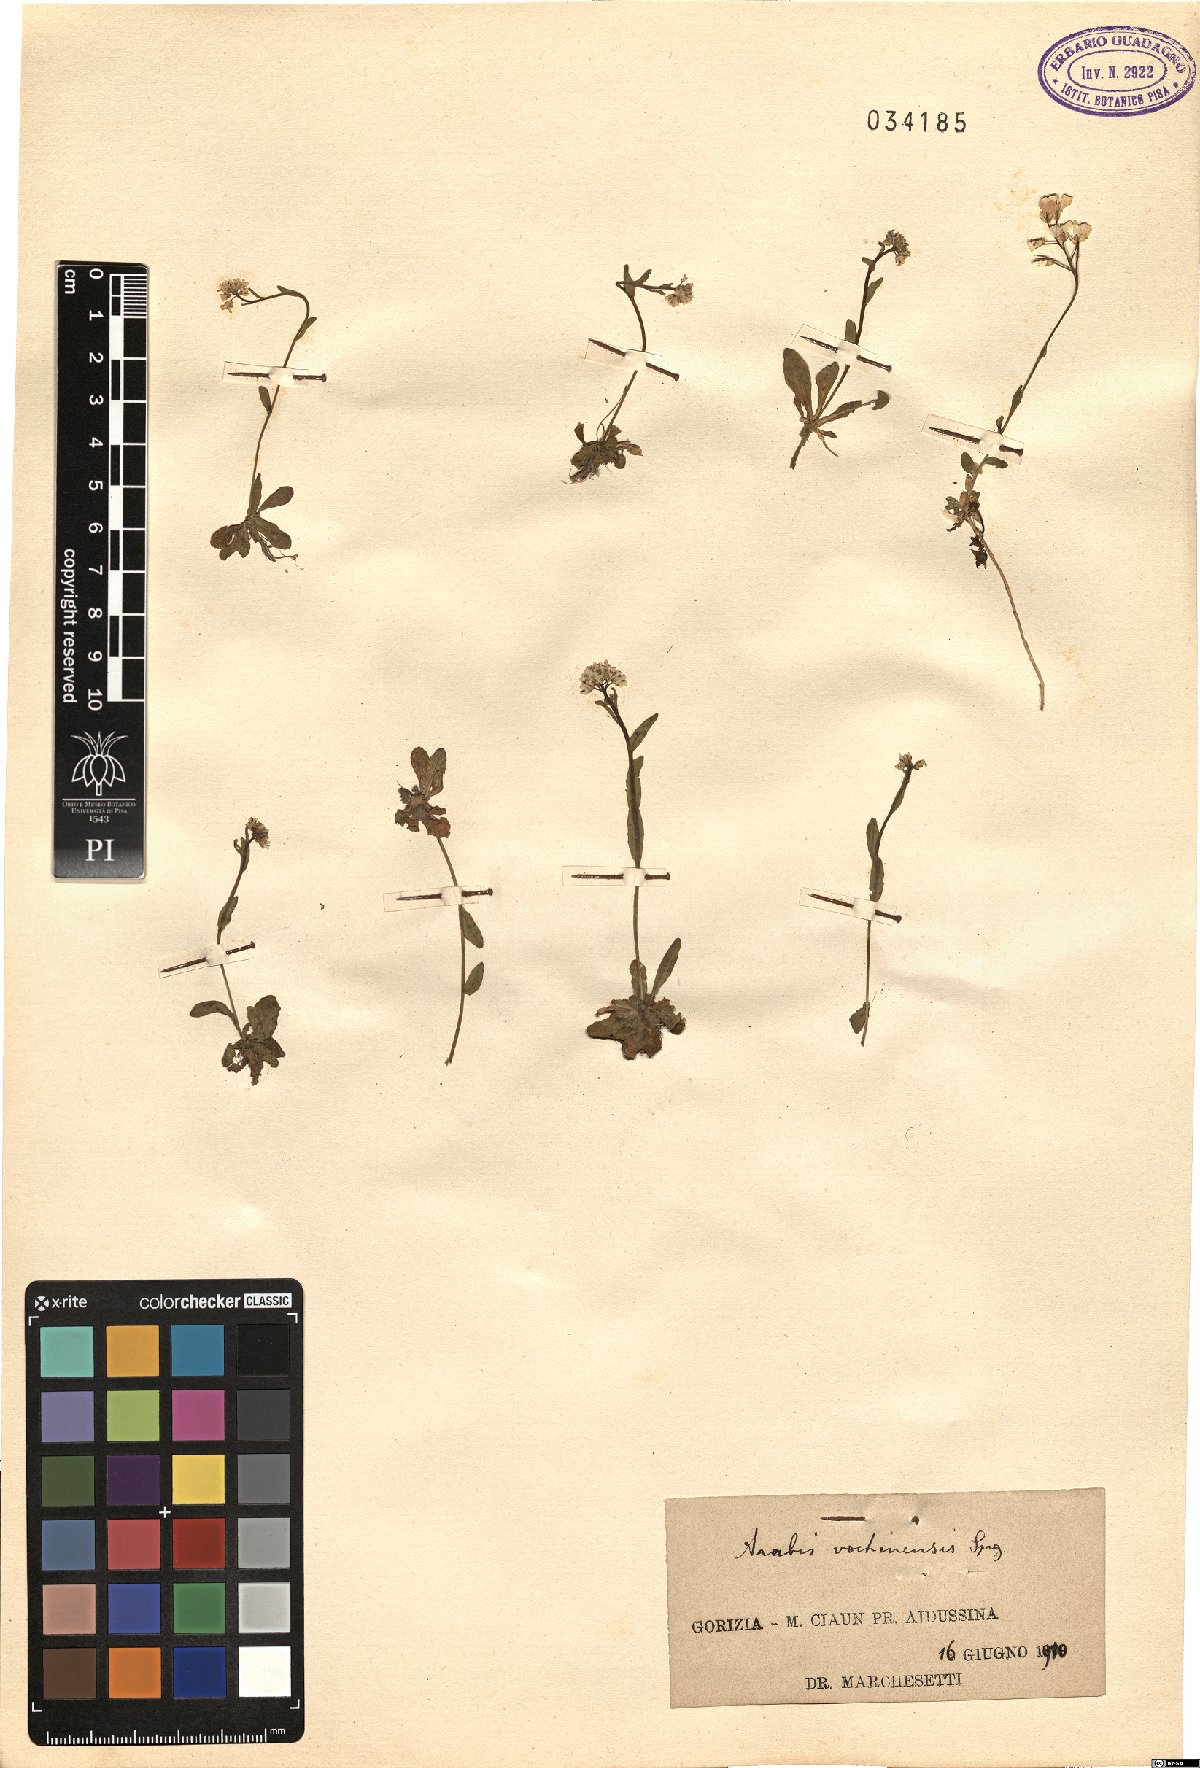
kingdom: Plantae
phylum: Tracheophyta
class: Magnoliopsida
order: Brassicales
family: Brassicaceae
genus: Arabis
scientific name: Arabis vochinensis
